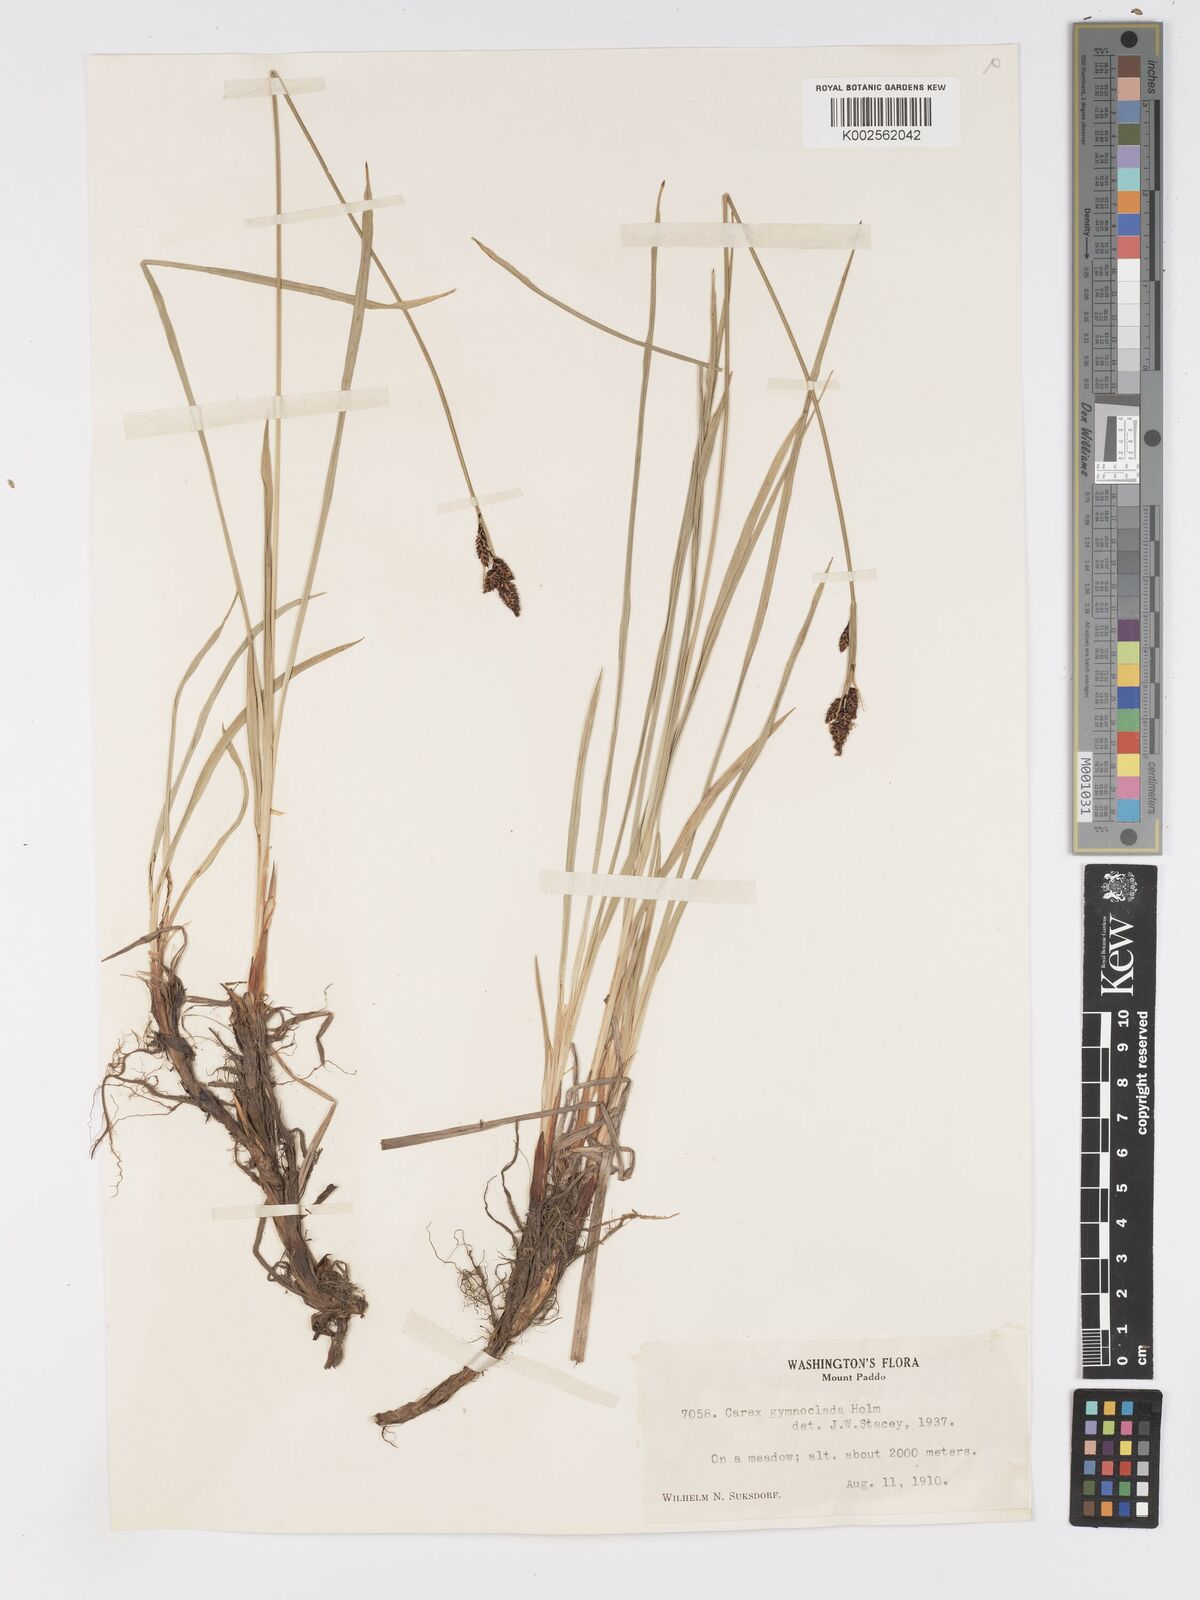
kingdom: Plantae
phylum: Tracheophyta
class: Liliopsida
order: Poales
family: Cyperaceae
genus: Carex
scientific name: Carex scopulorum
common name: Holm's rocky mountain sedge
